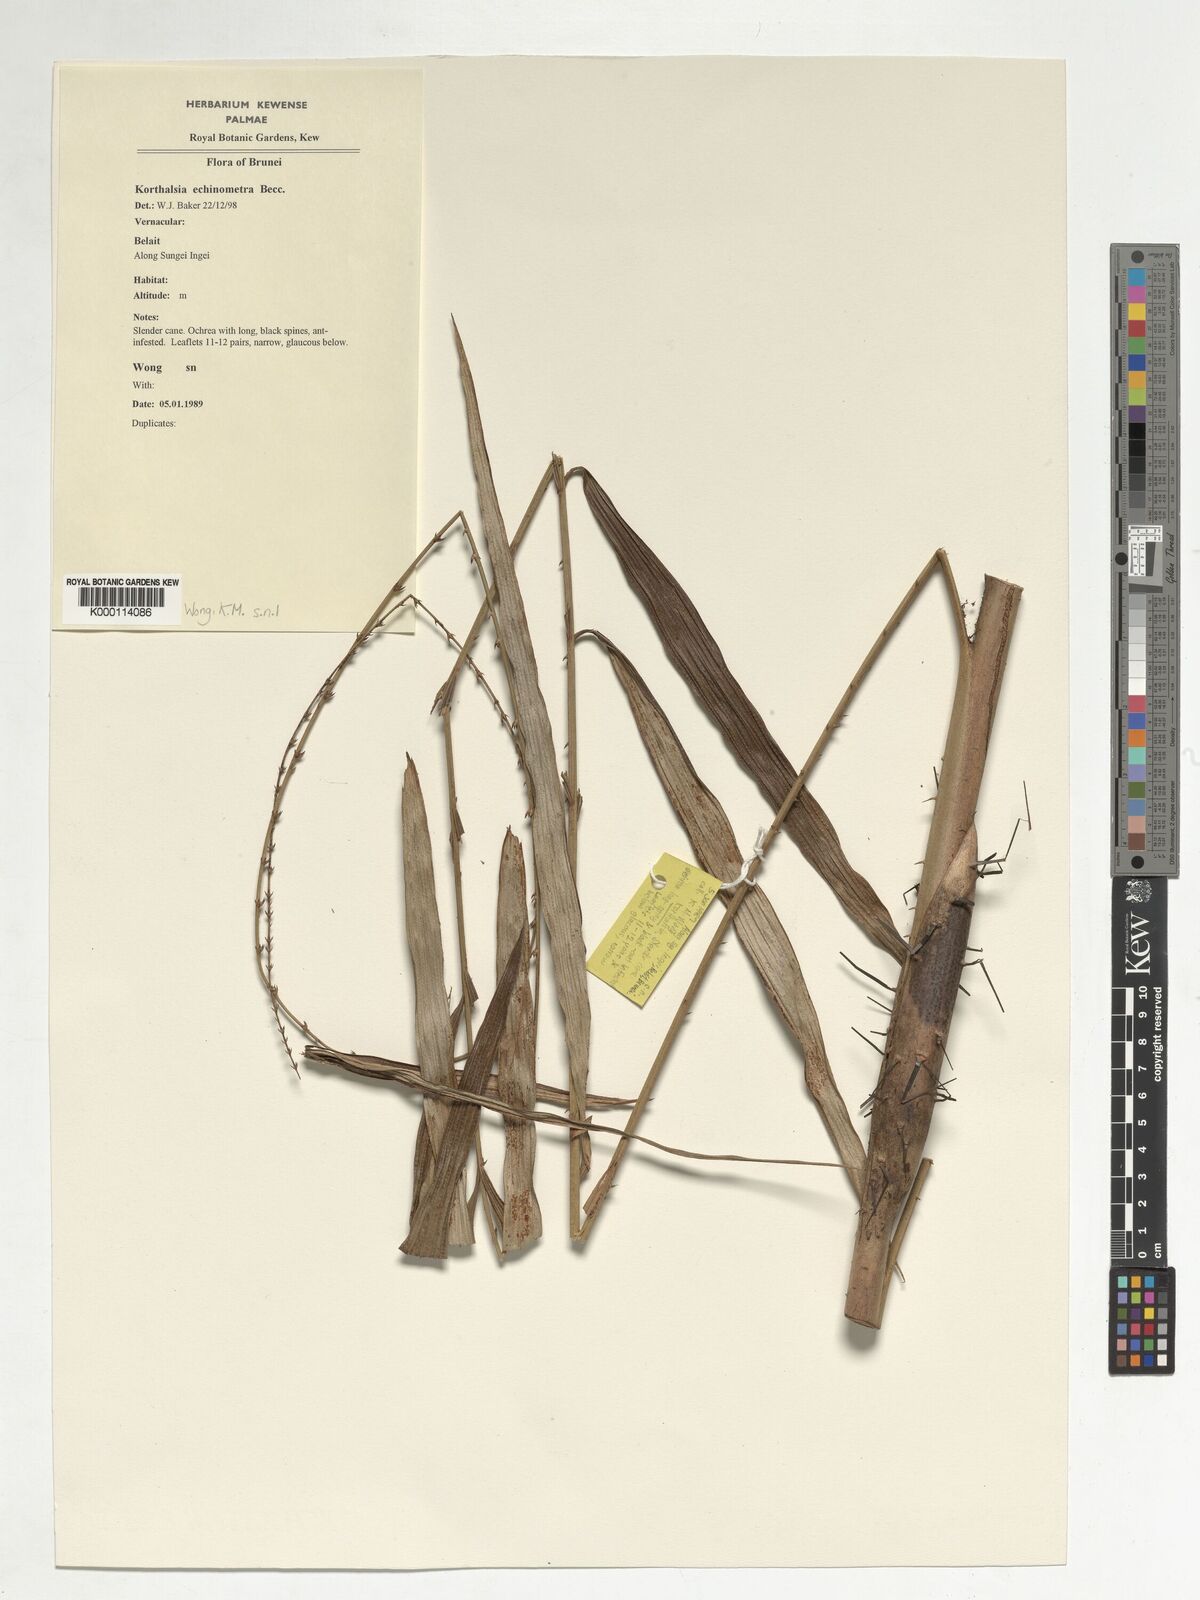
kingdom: Plantae
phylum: Tracheophyta
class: Liliopsida
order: Arecales
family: Arecaceae
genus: Korthalsia
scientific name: Korthalsia echinometra
